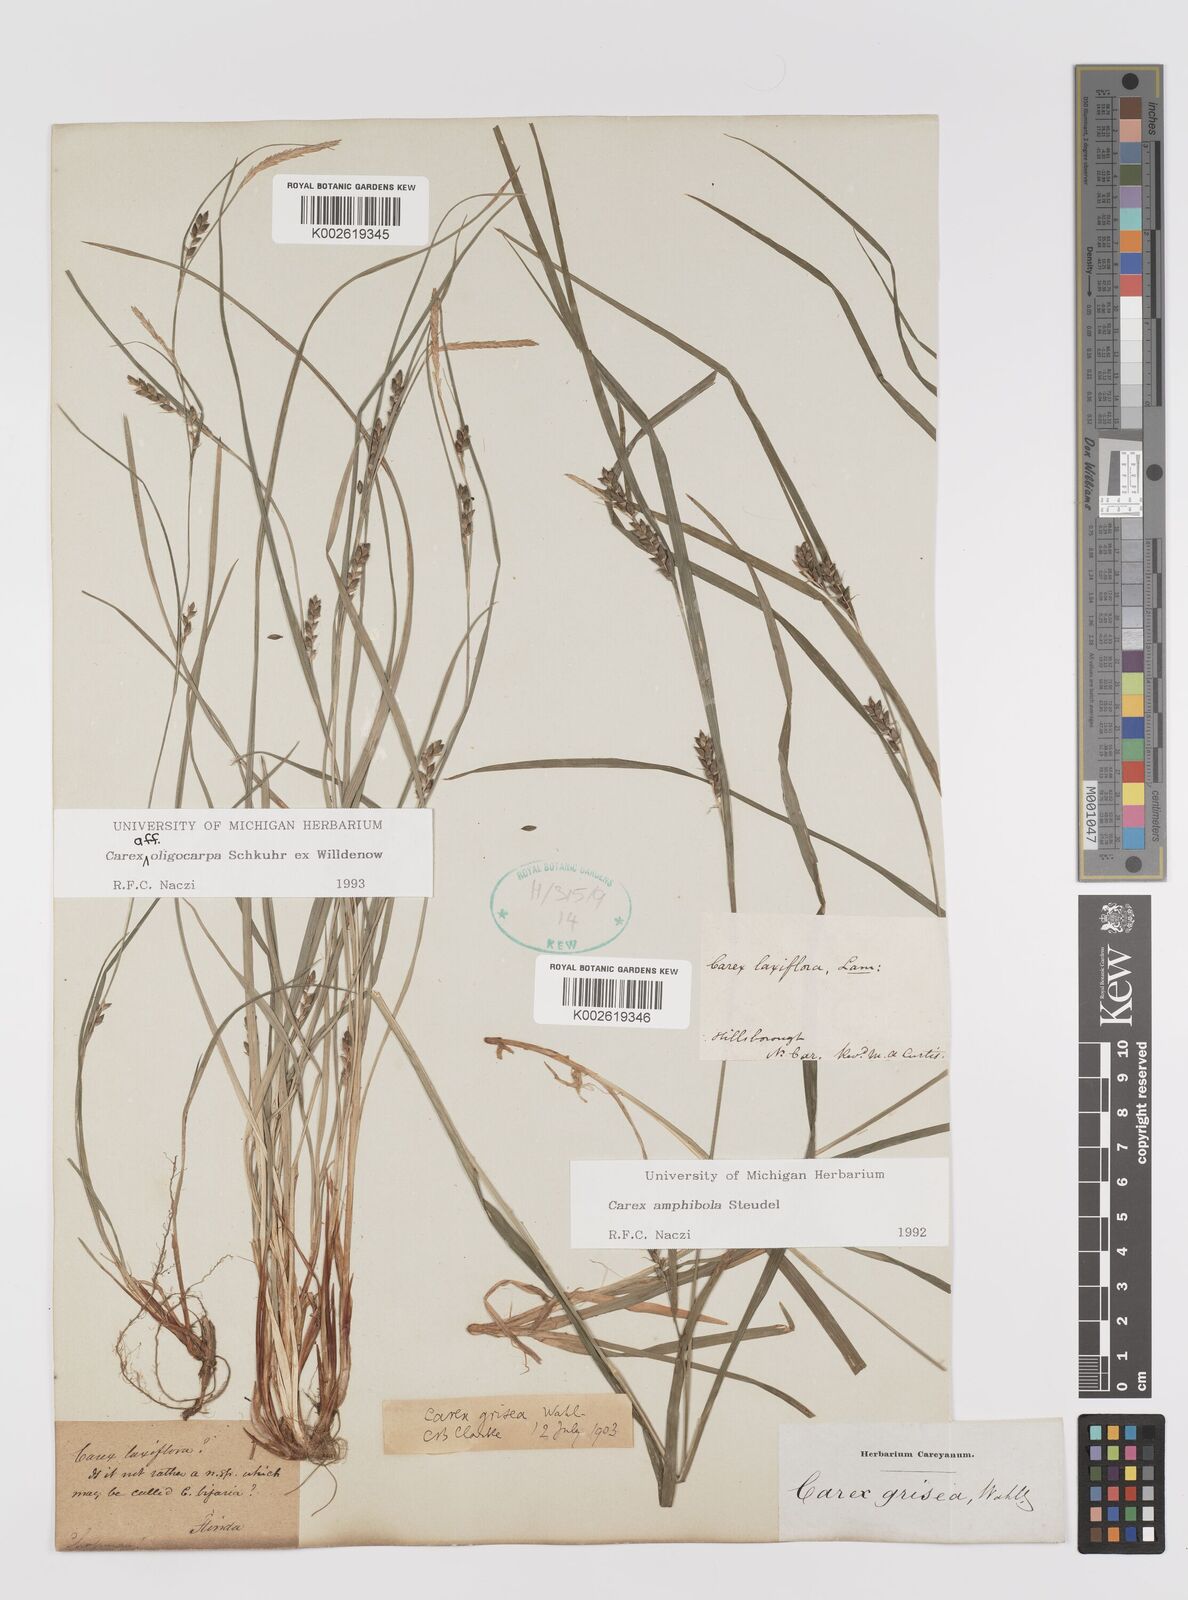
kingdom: Plantae
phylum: Tracheophyta
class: Liliopsida
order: Poales
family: Cyperaceae
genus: Carex
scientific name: Carex amphibola
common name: Amphibious sedge
